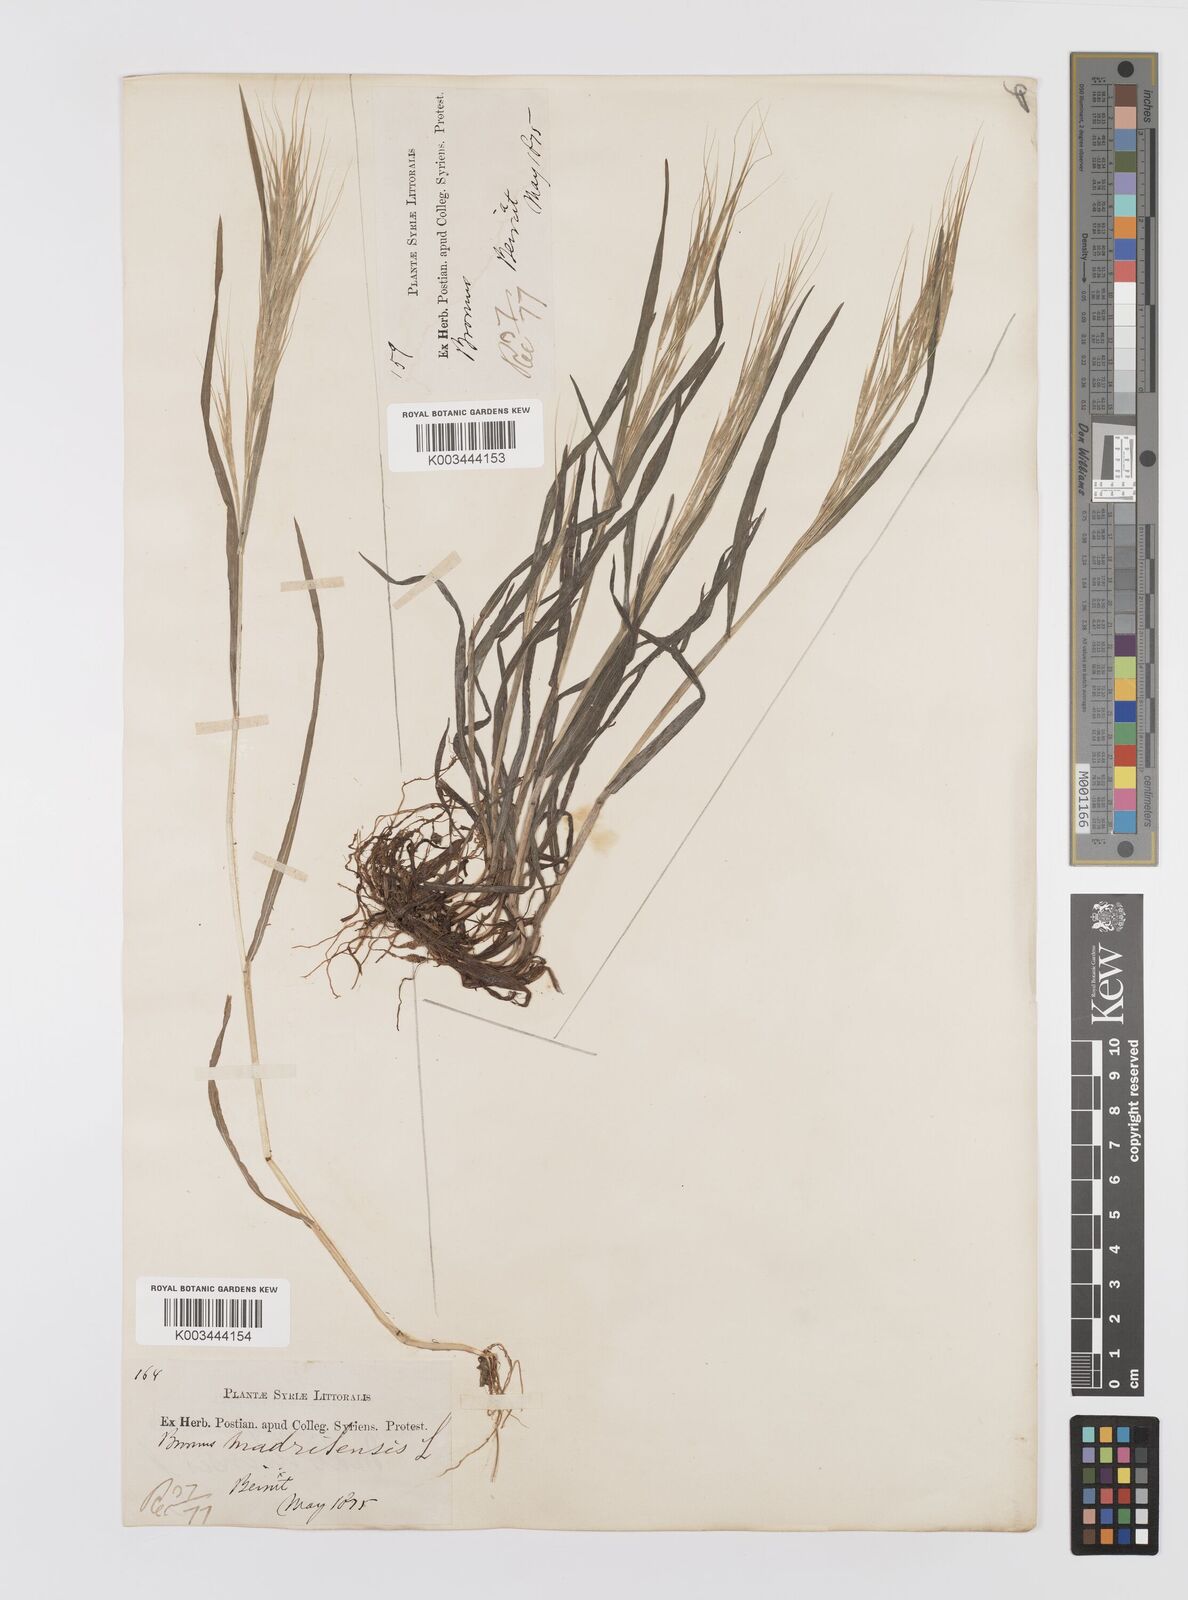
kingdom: Plantae
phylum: Tracheophyta
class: Liliopsida
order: Poales
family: Poaceae
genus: Bromus
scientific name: Bromus madritensis
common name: Compact brome
